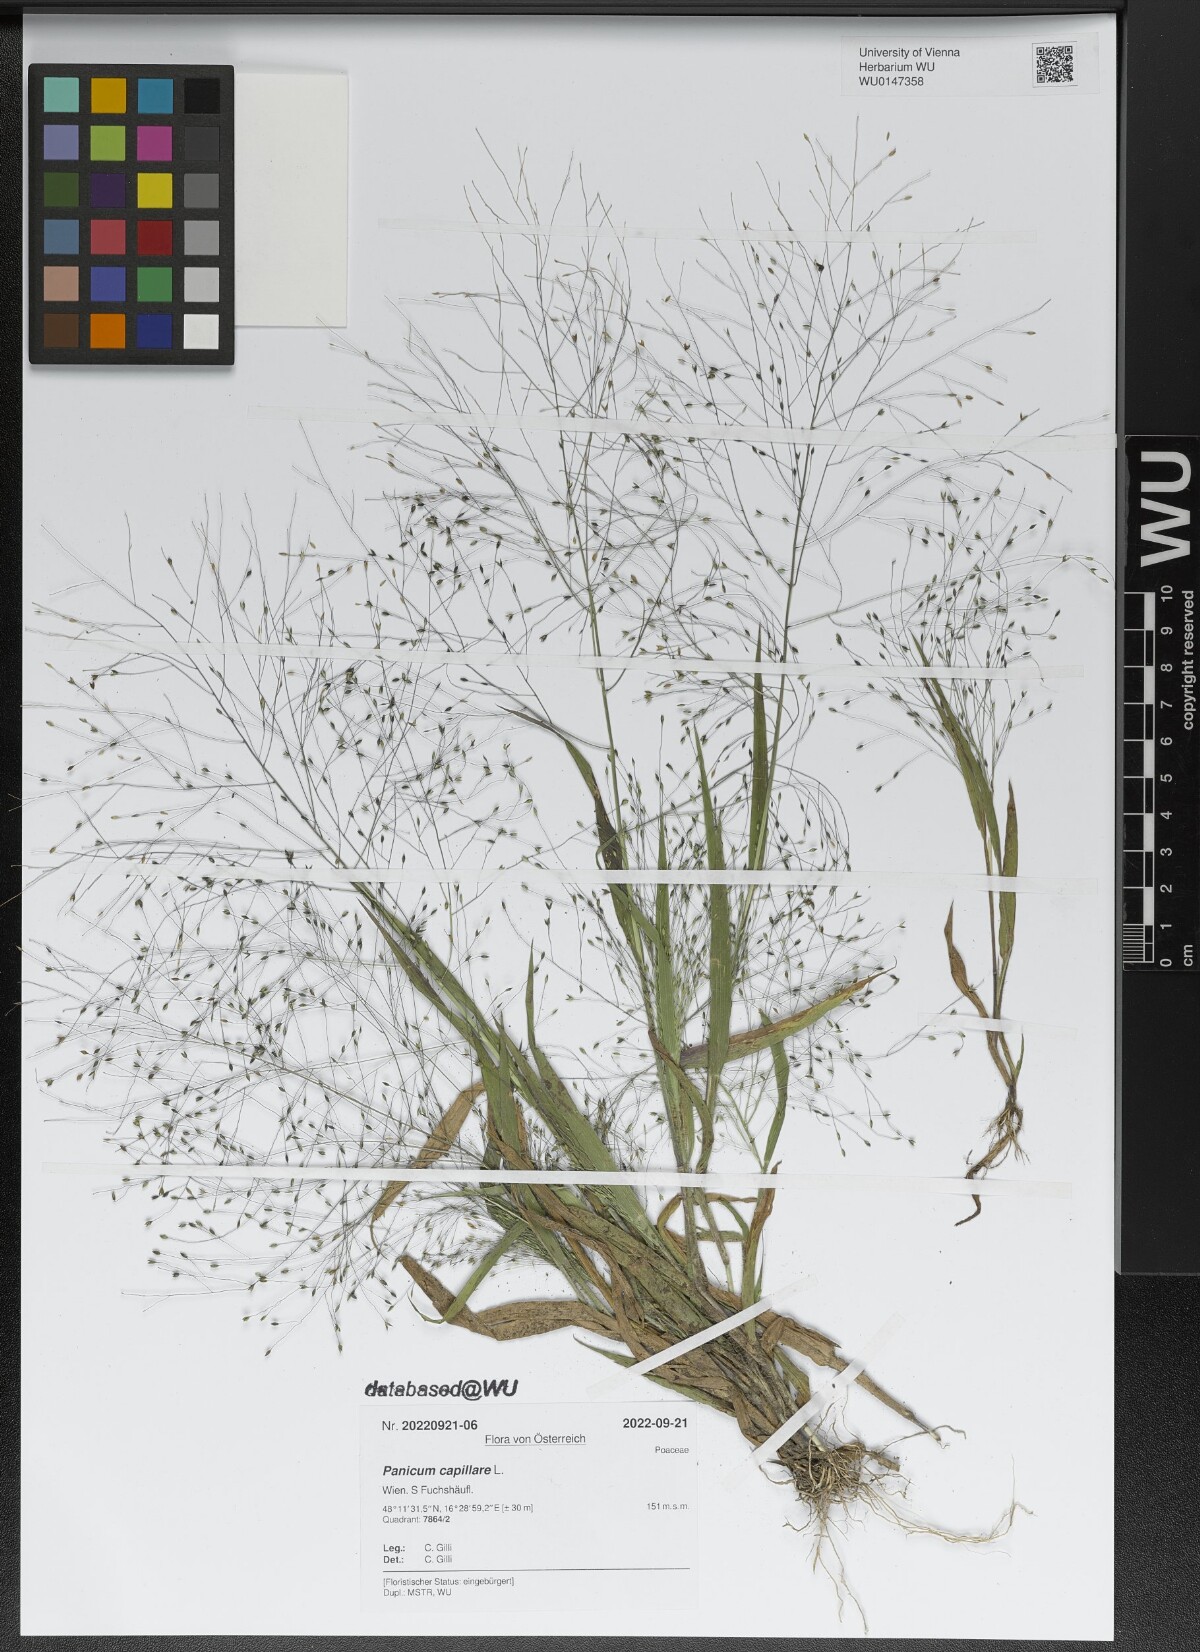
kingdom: Plantae
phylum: Tracheophyta
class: Liliopsida
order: Poales
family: Poaceae
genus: Panicum
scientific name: Panicum capillare
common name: Witch-grass
